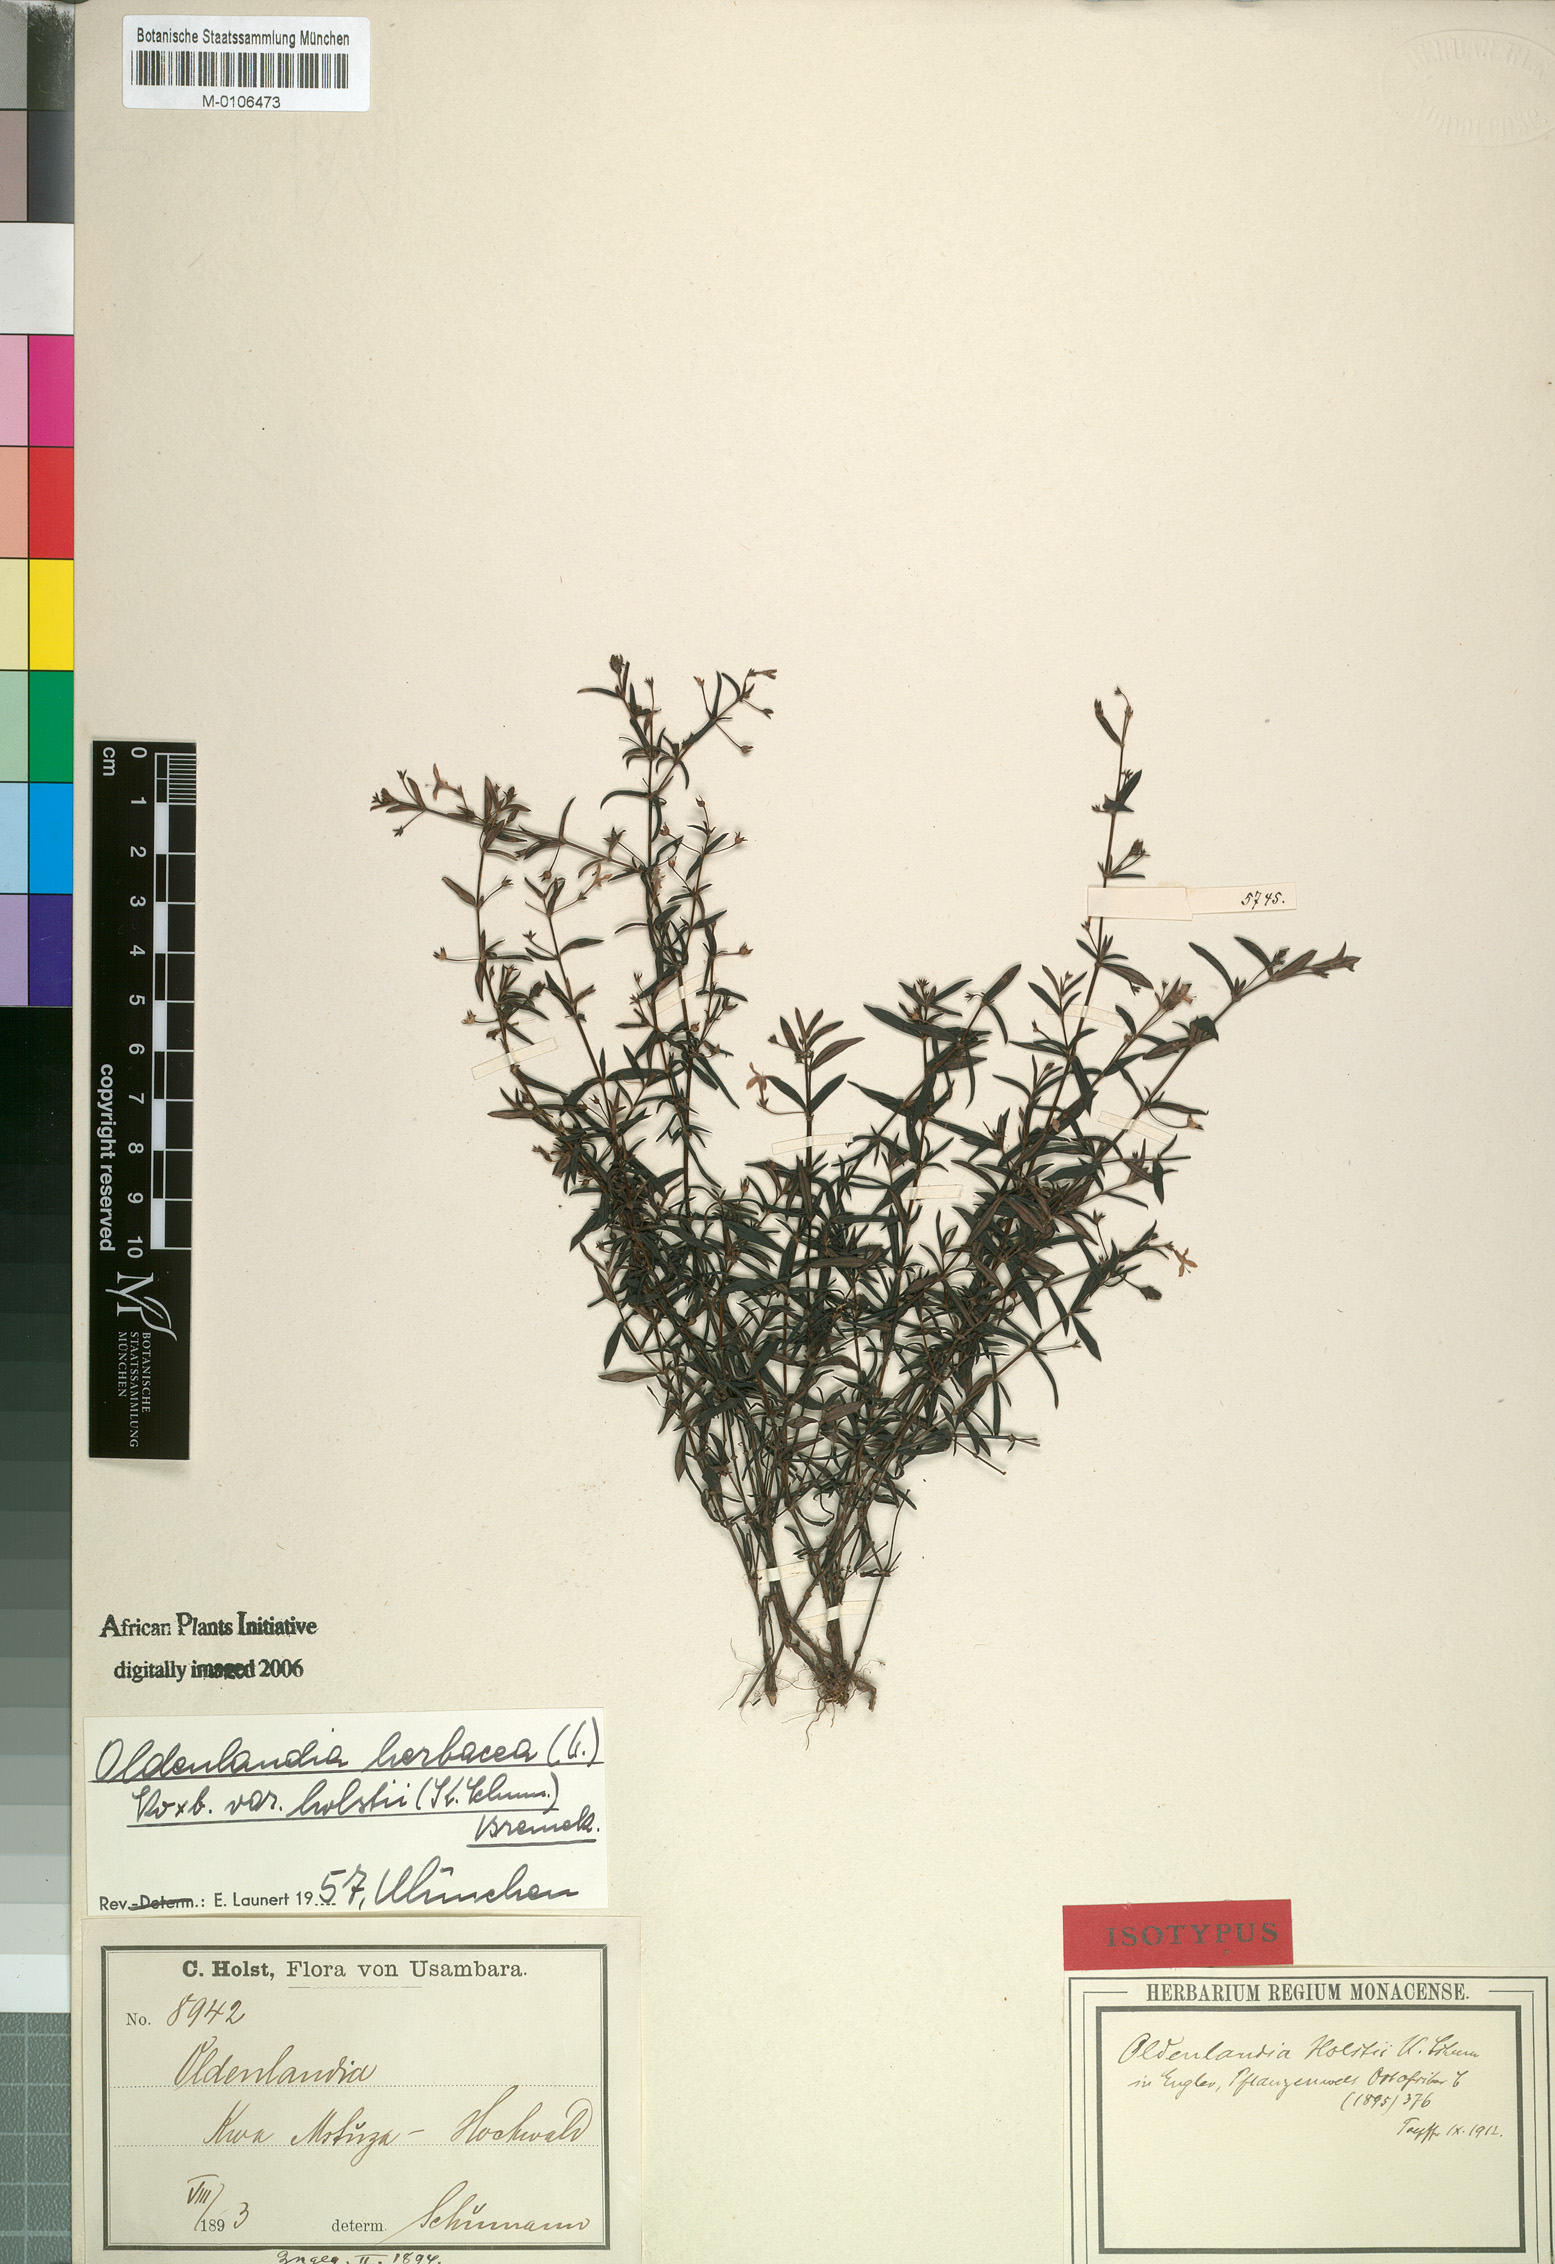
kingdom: Plantae
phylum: Tracheophyta
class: Magnoliopsida
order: Gentianales
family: Rubiaceae
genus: Oldenlandia
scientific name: Oldenlandia herbacea
